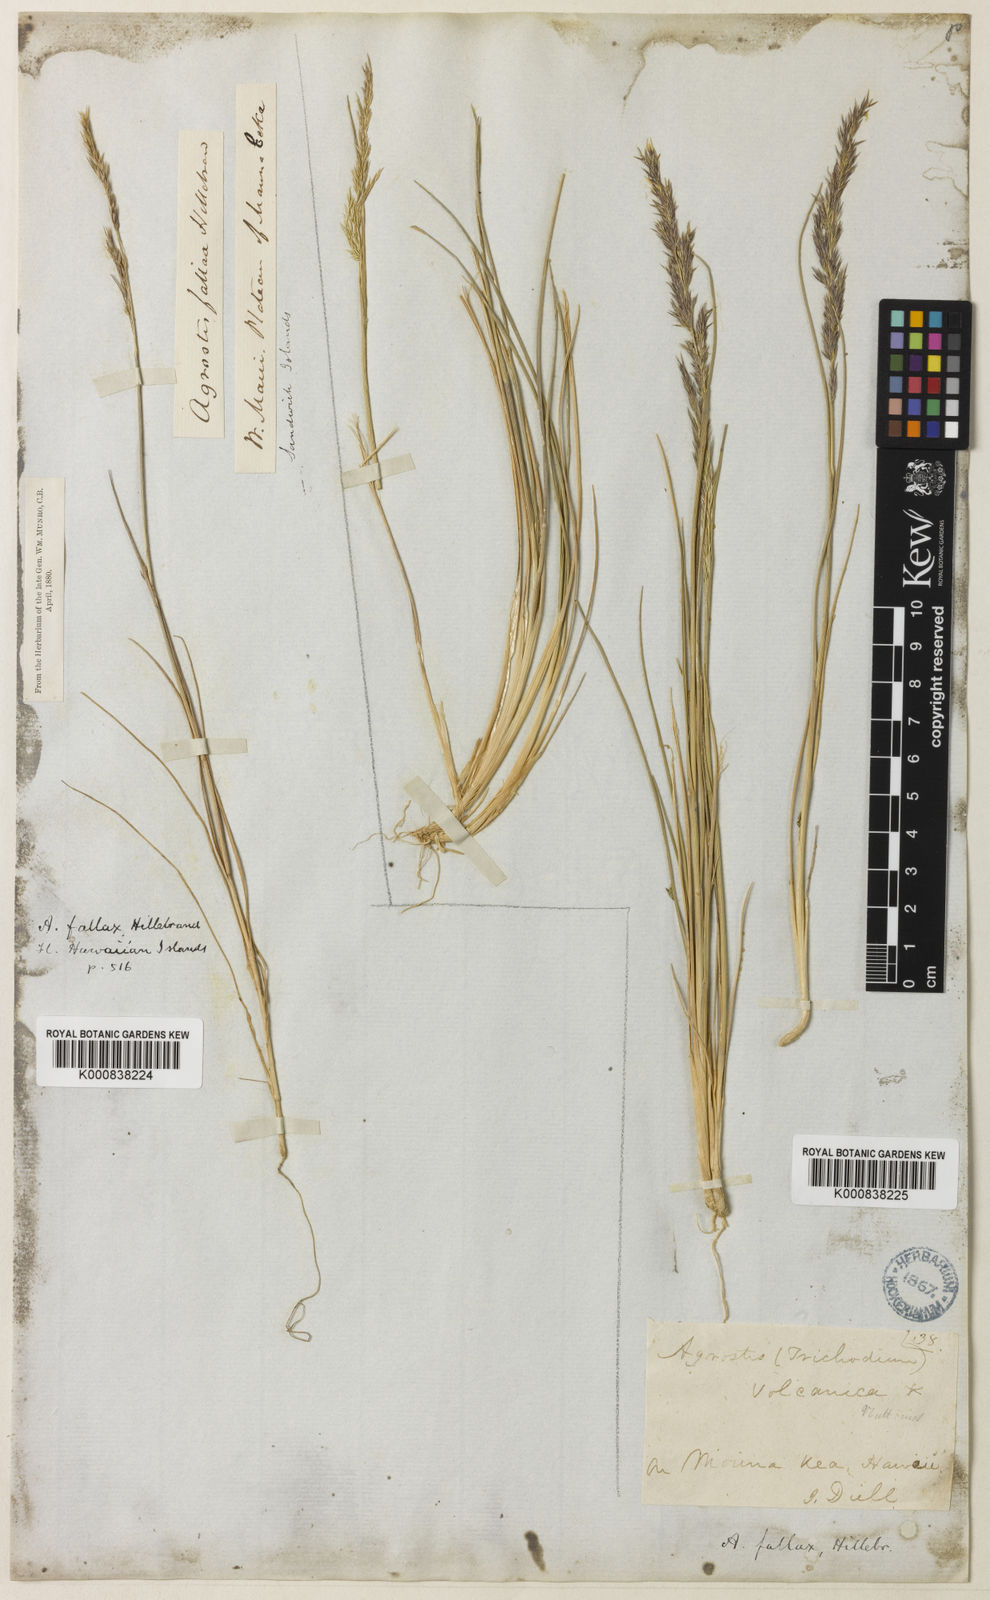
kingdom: Plantae
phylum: Tracheophyta
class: Liliopsida
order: Poales
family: Poaceae
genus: Agrostis
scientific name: Agrostis sandwicensis
